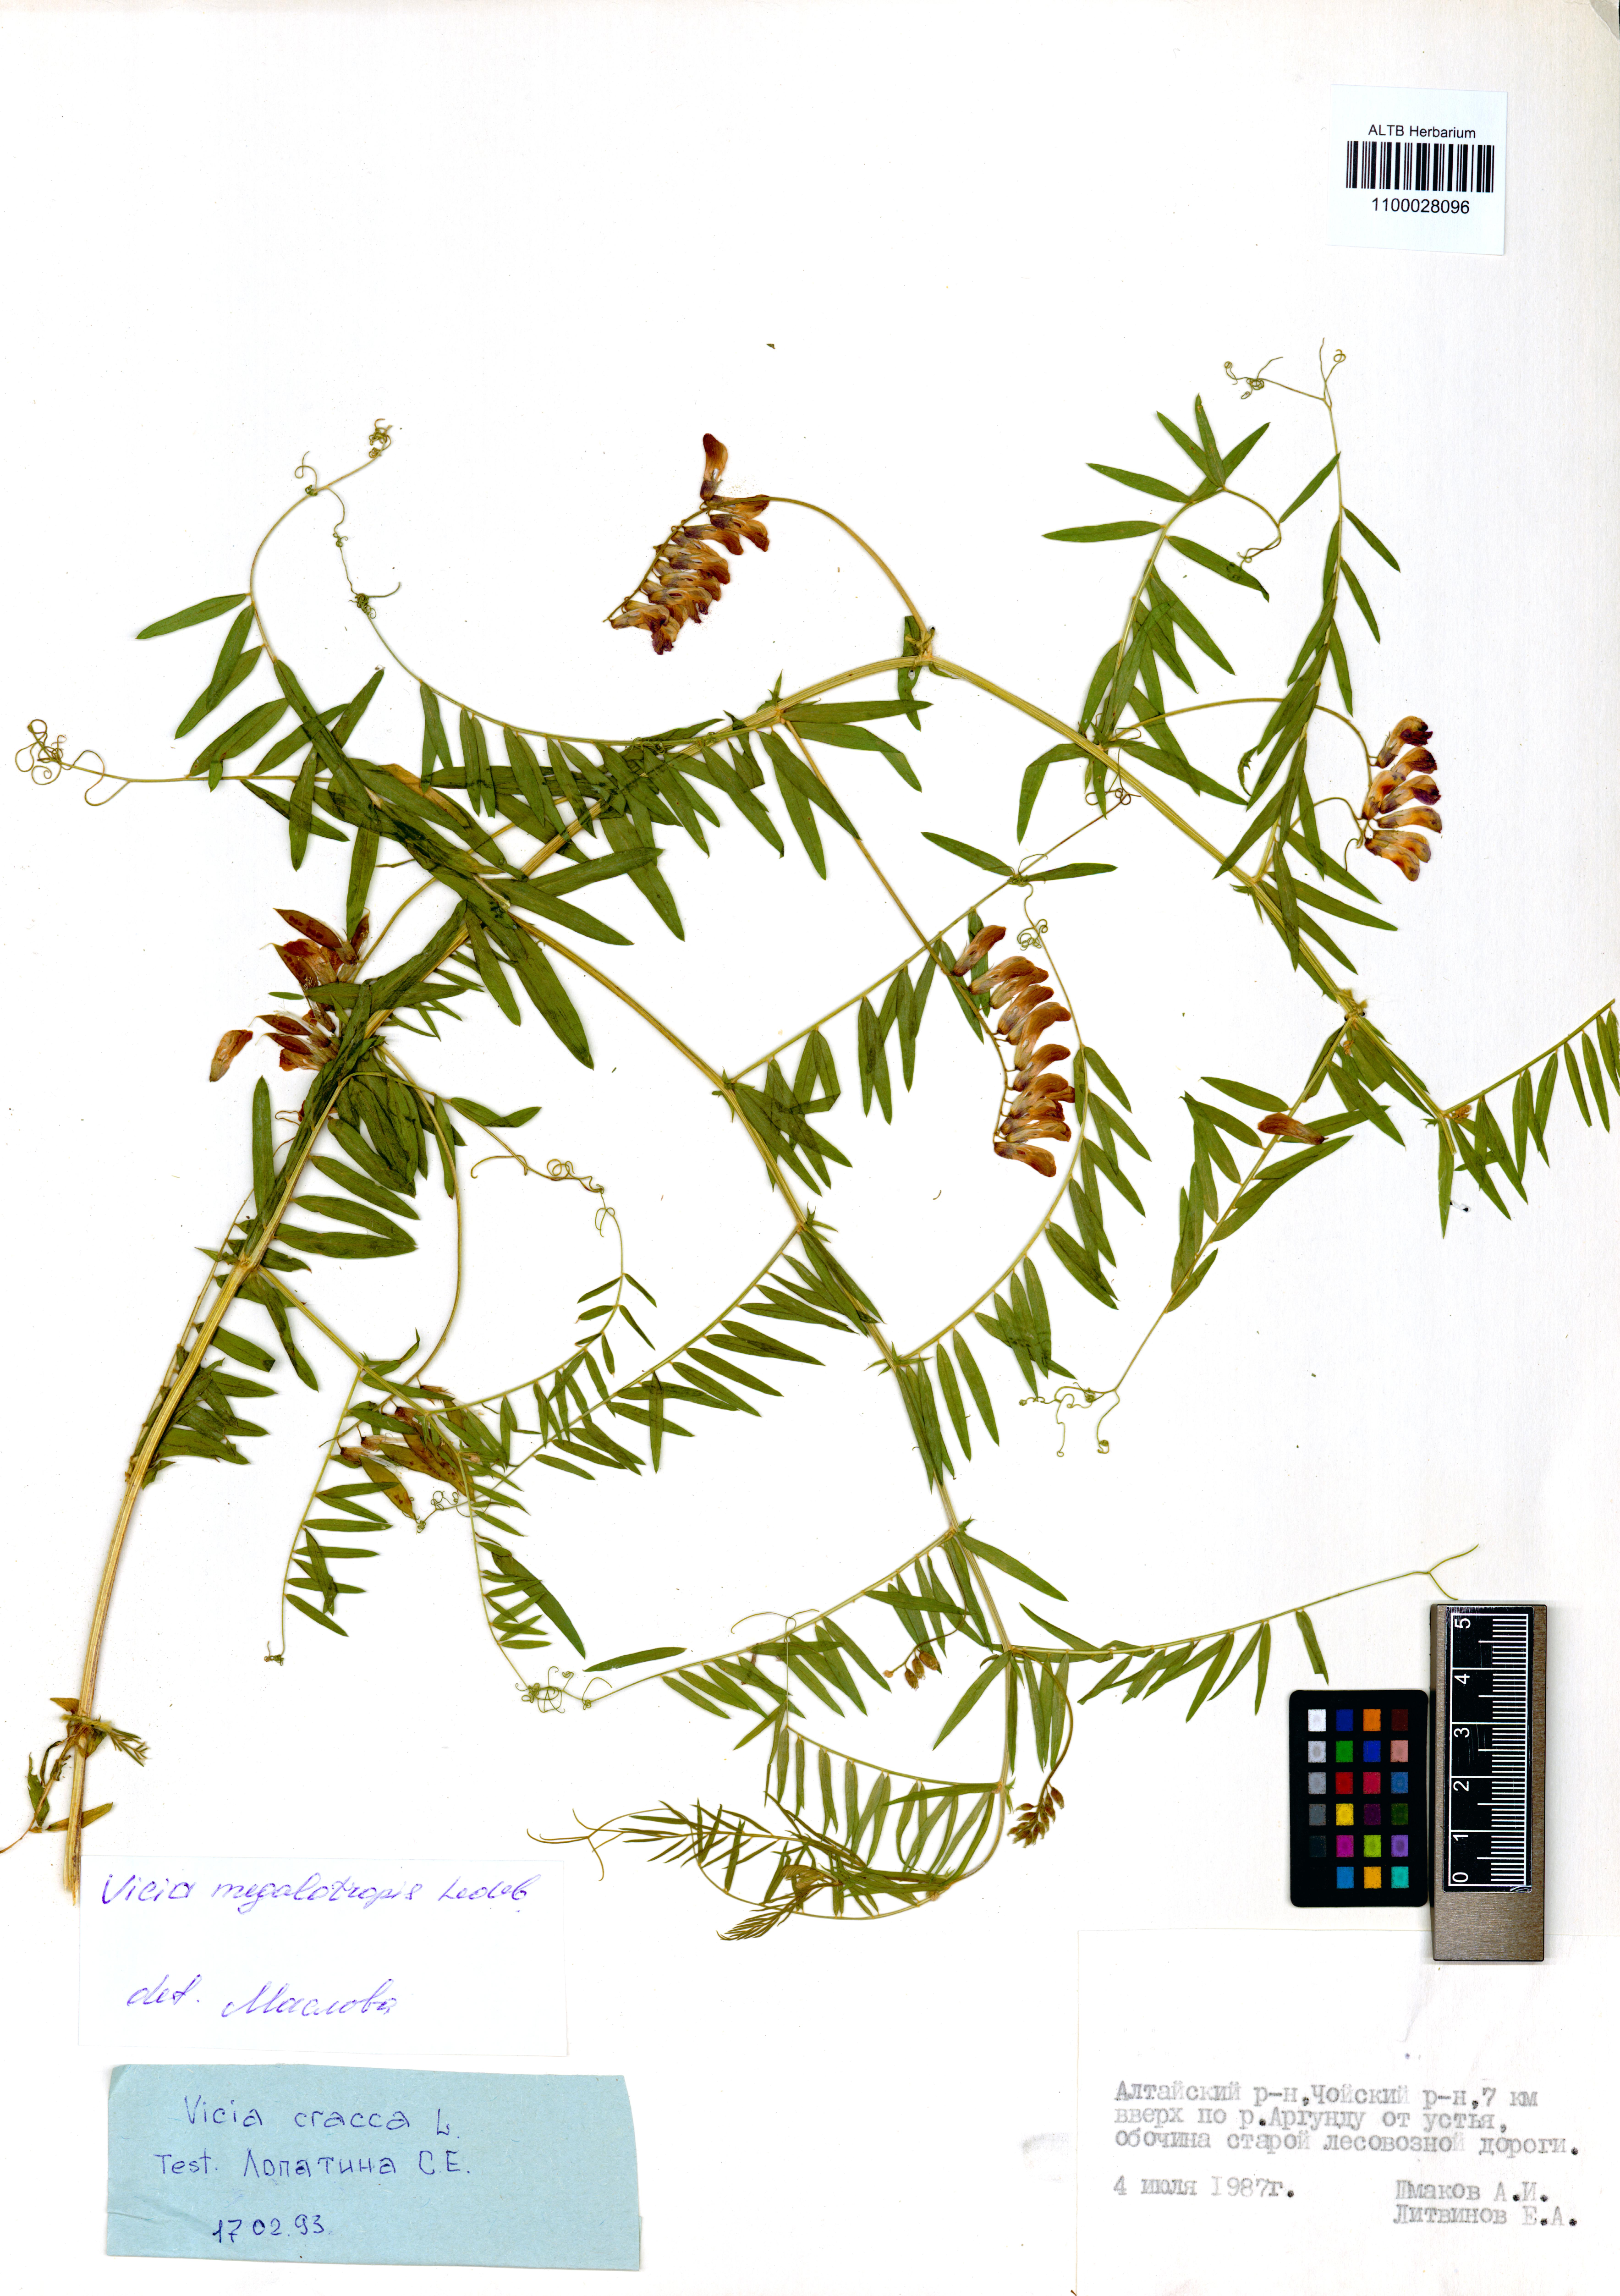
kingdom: Plantae
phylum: Tracheophyta
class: Magnoliopsida
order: Fabales
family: Fabaceae
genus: Vicia
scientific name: Vicia megalotropis
